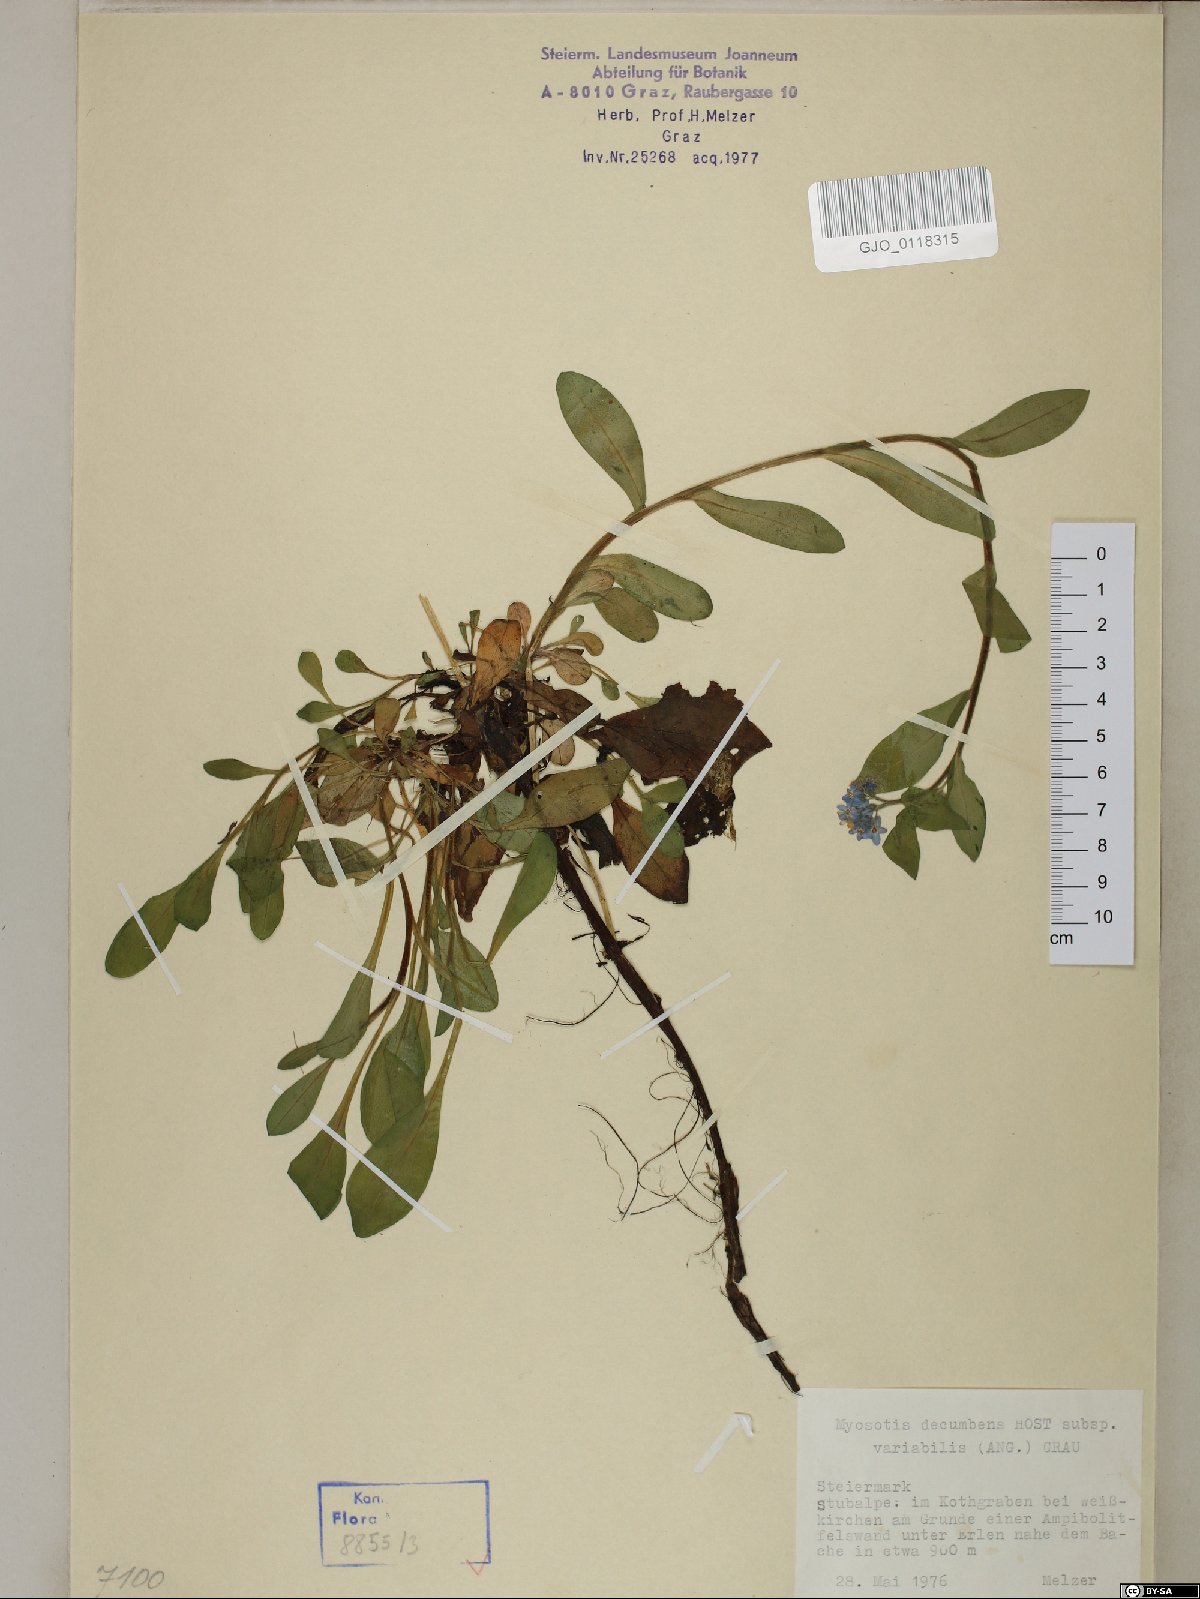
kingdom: Plantae
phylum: Tracheophyta
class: Magnoliopsida
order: Boraginales
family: Boraginaceae
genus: Myosotis
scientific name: Myosotis decumbens
